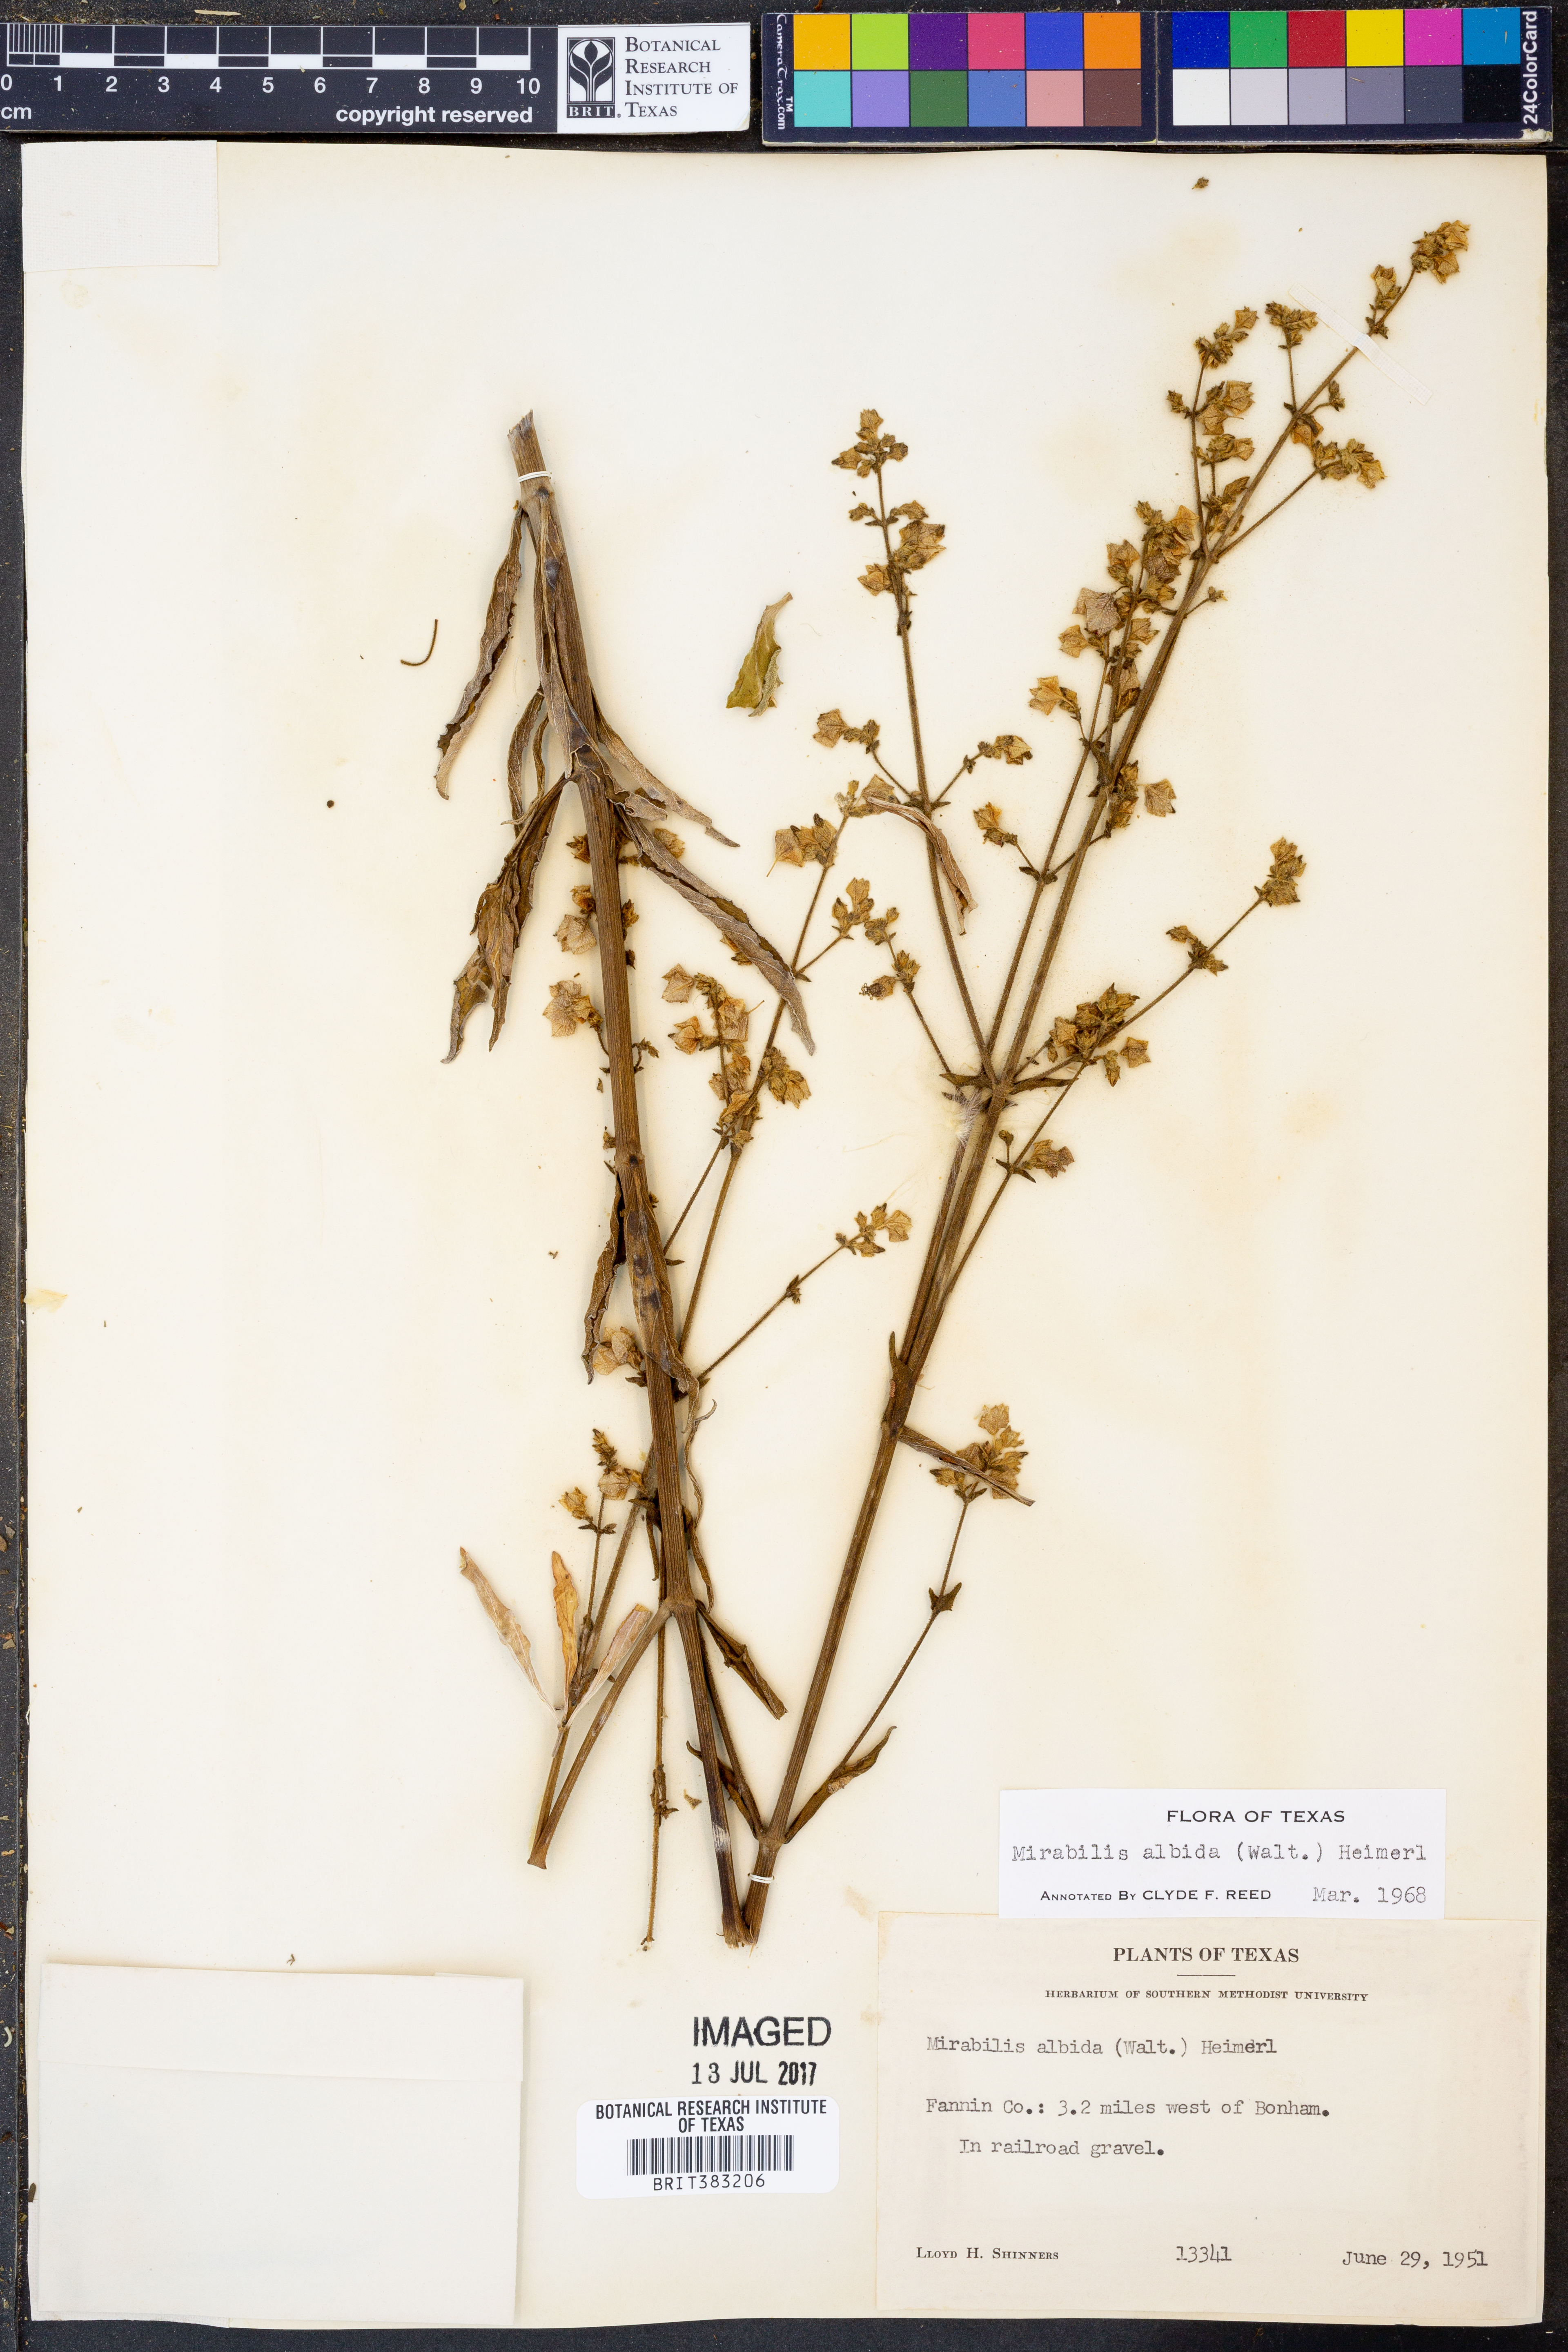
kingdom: Plantae
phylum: Tracheophyta
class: Magnoliopsida
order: Caryophyllales
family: Nyctaginaceae
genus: Mirabilis
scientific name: Mirabilis albida
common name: Hairy four-o'clock
